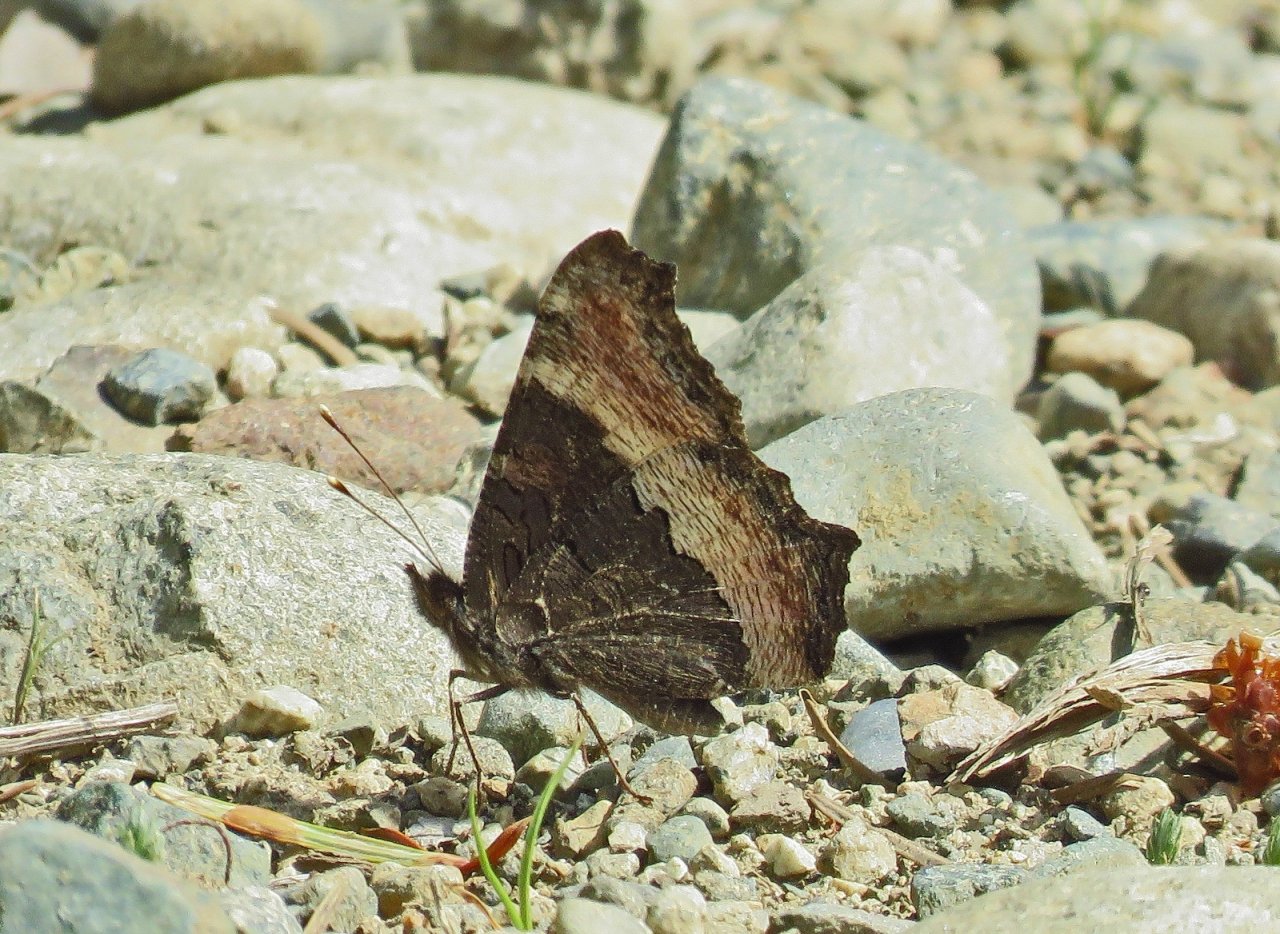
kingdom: Animalia
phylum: Arthropoda
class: Insecta
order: Lepidoptera
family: Nymphalidae
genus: Aglais
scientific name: Aglais milberti
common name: Milbert's Tortoiseshell
